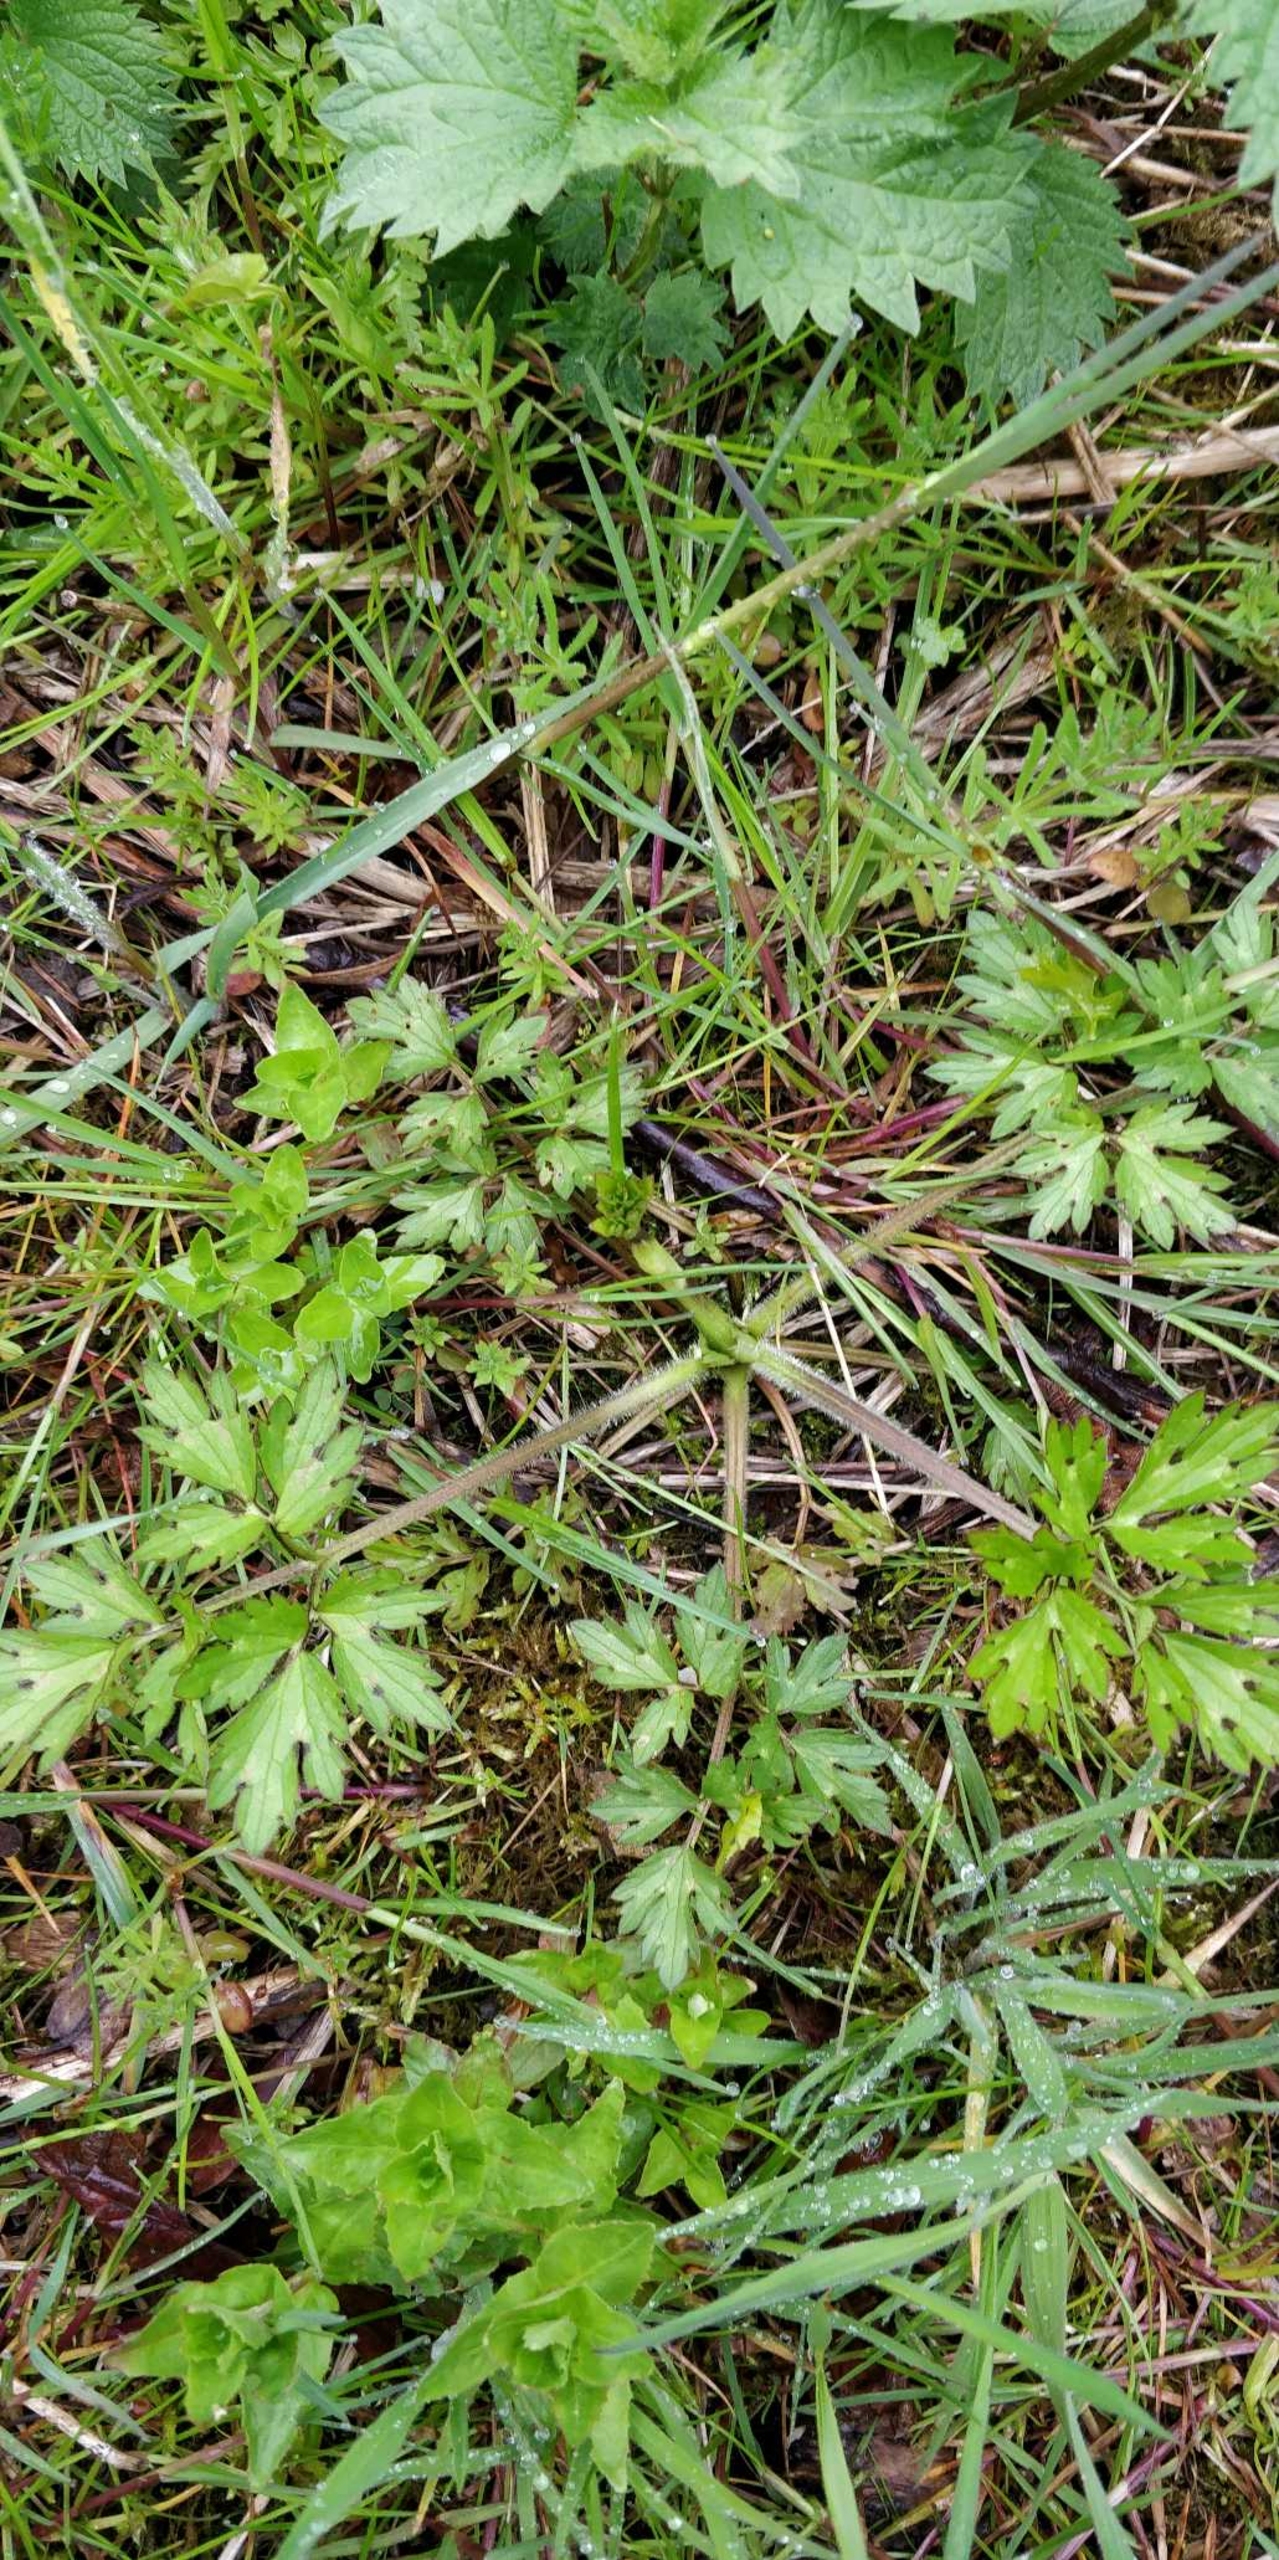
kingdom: Plantae
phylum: Tracheophyta
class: Magnoliopsida
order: Ranunculales
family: Ranunculaceae
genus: Ranunculus
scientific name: Ranunculus repens
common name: Lav ranunkel
